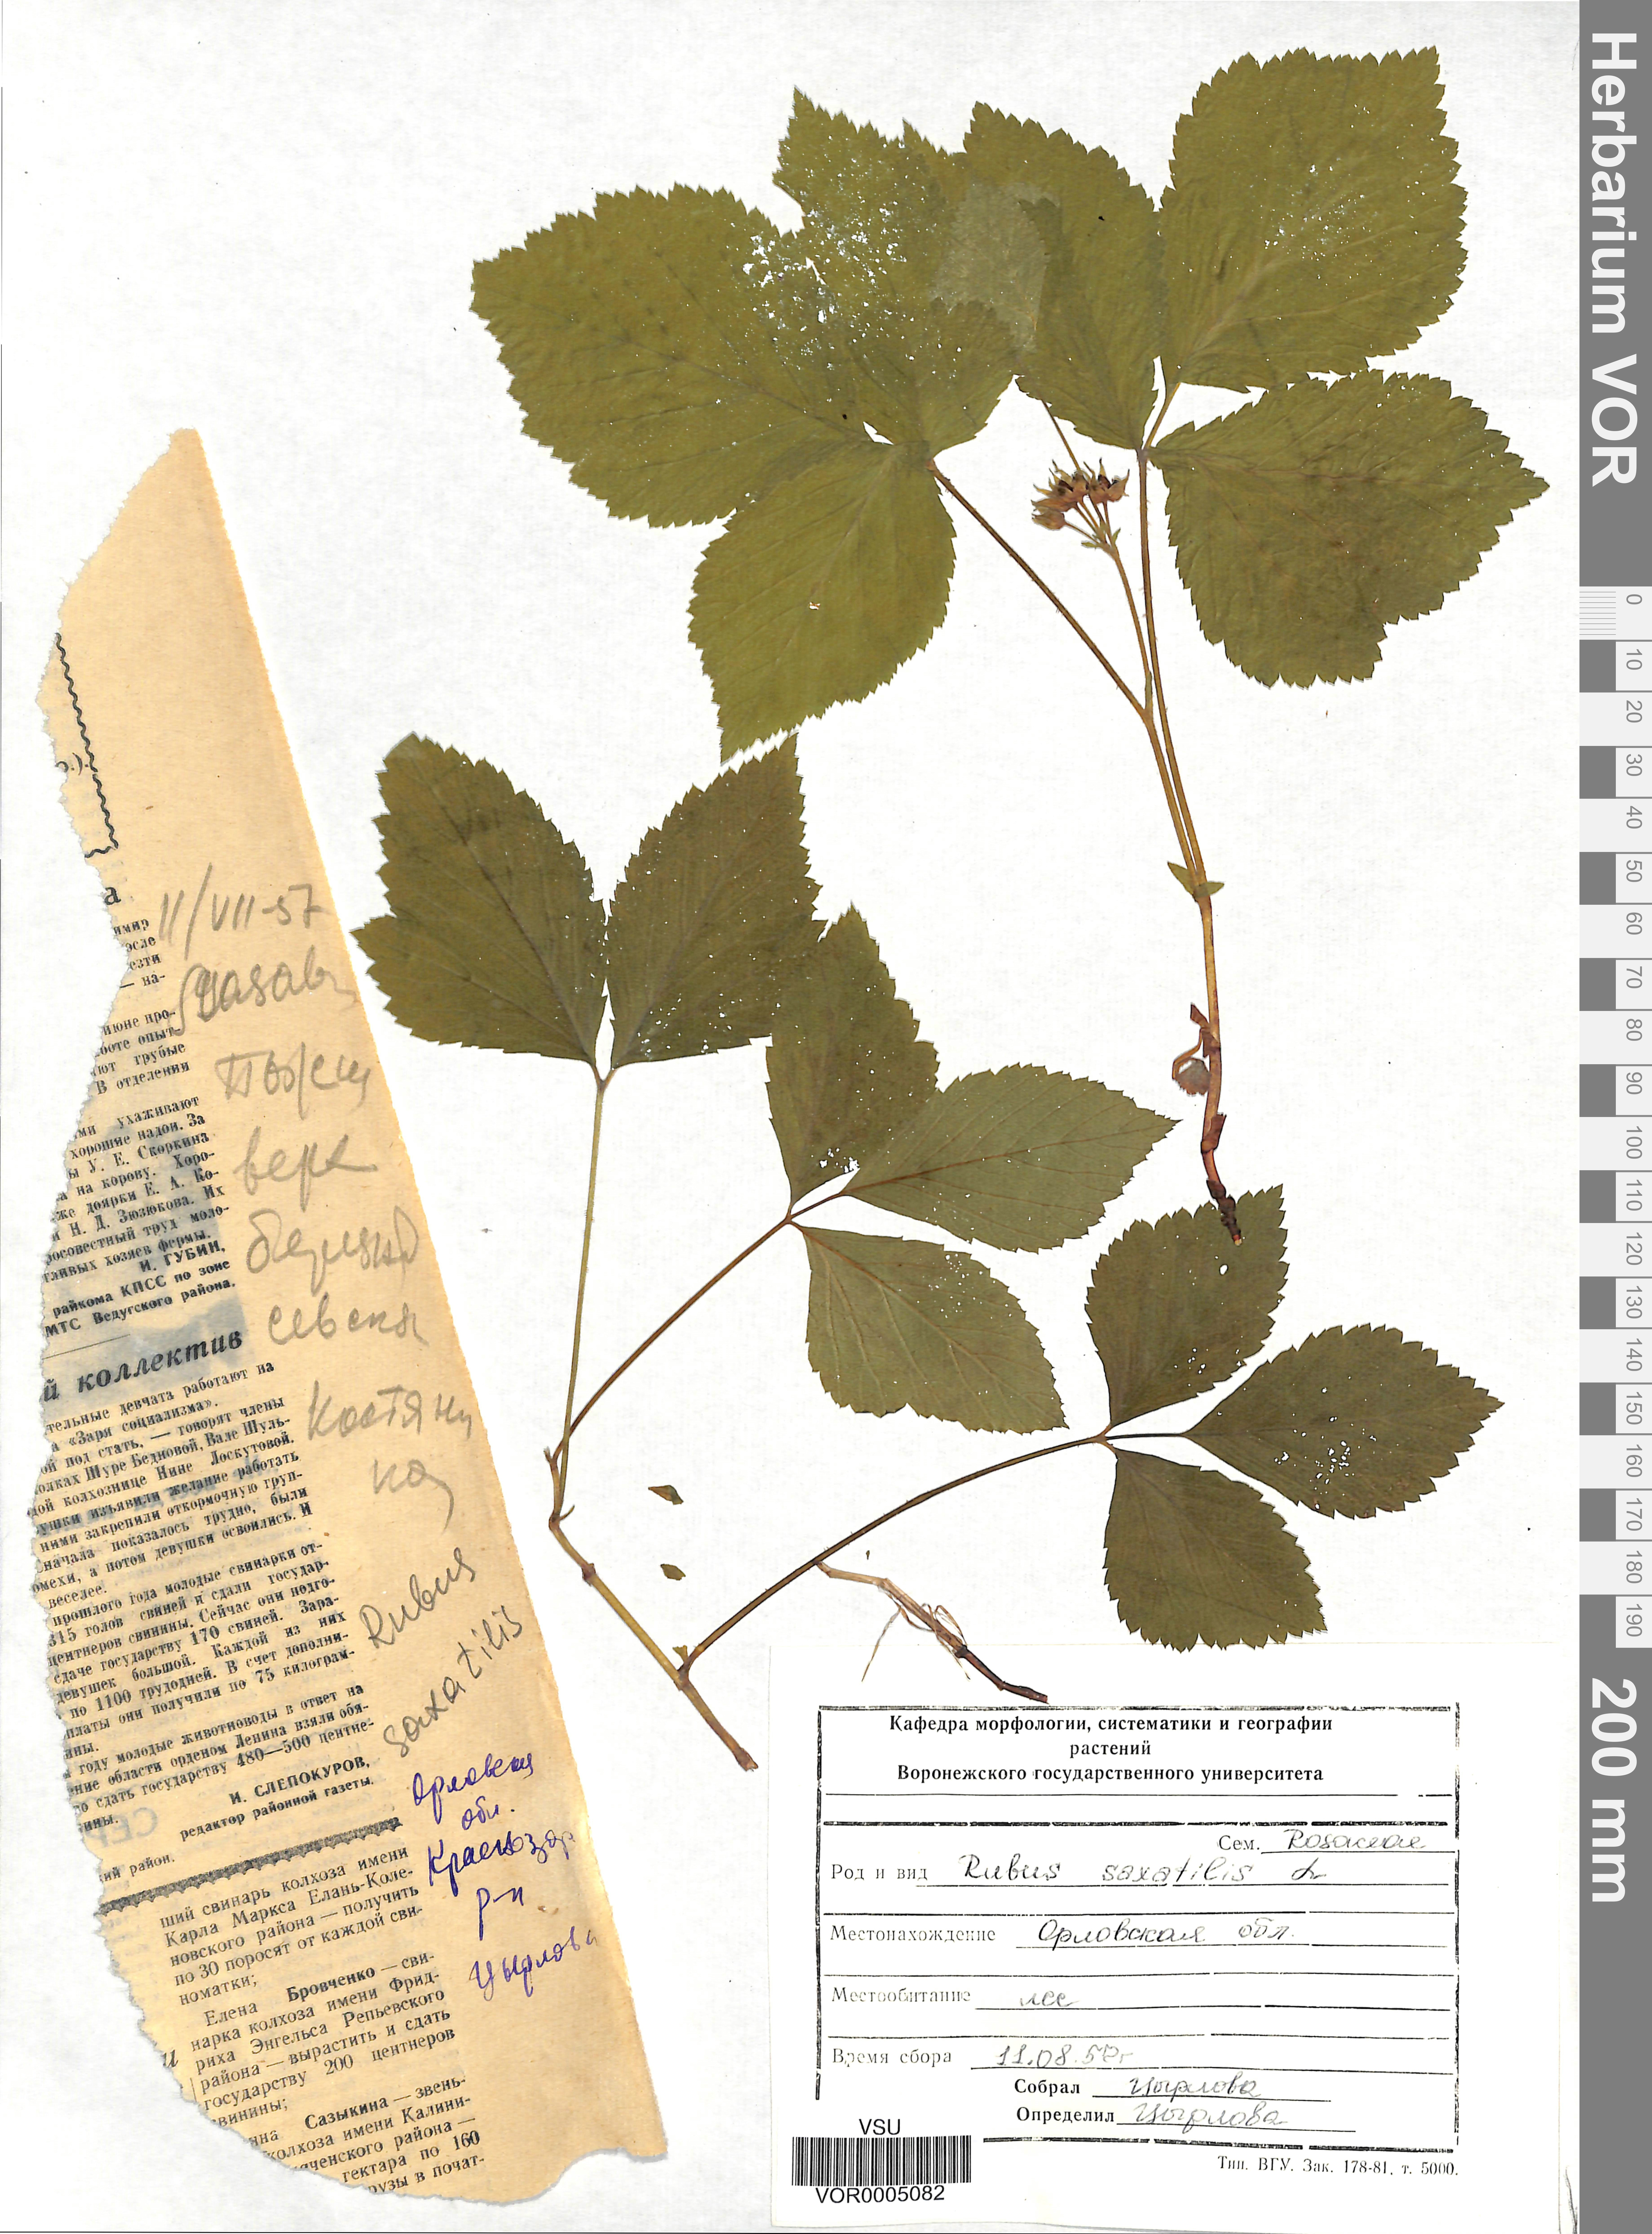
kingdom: Plantae
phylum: Tracheophyta
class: Magnoliopsida
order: Rosales
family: Rosaceae
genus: Rubus
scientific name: Rubus saxatilis
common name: Stone bramble
